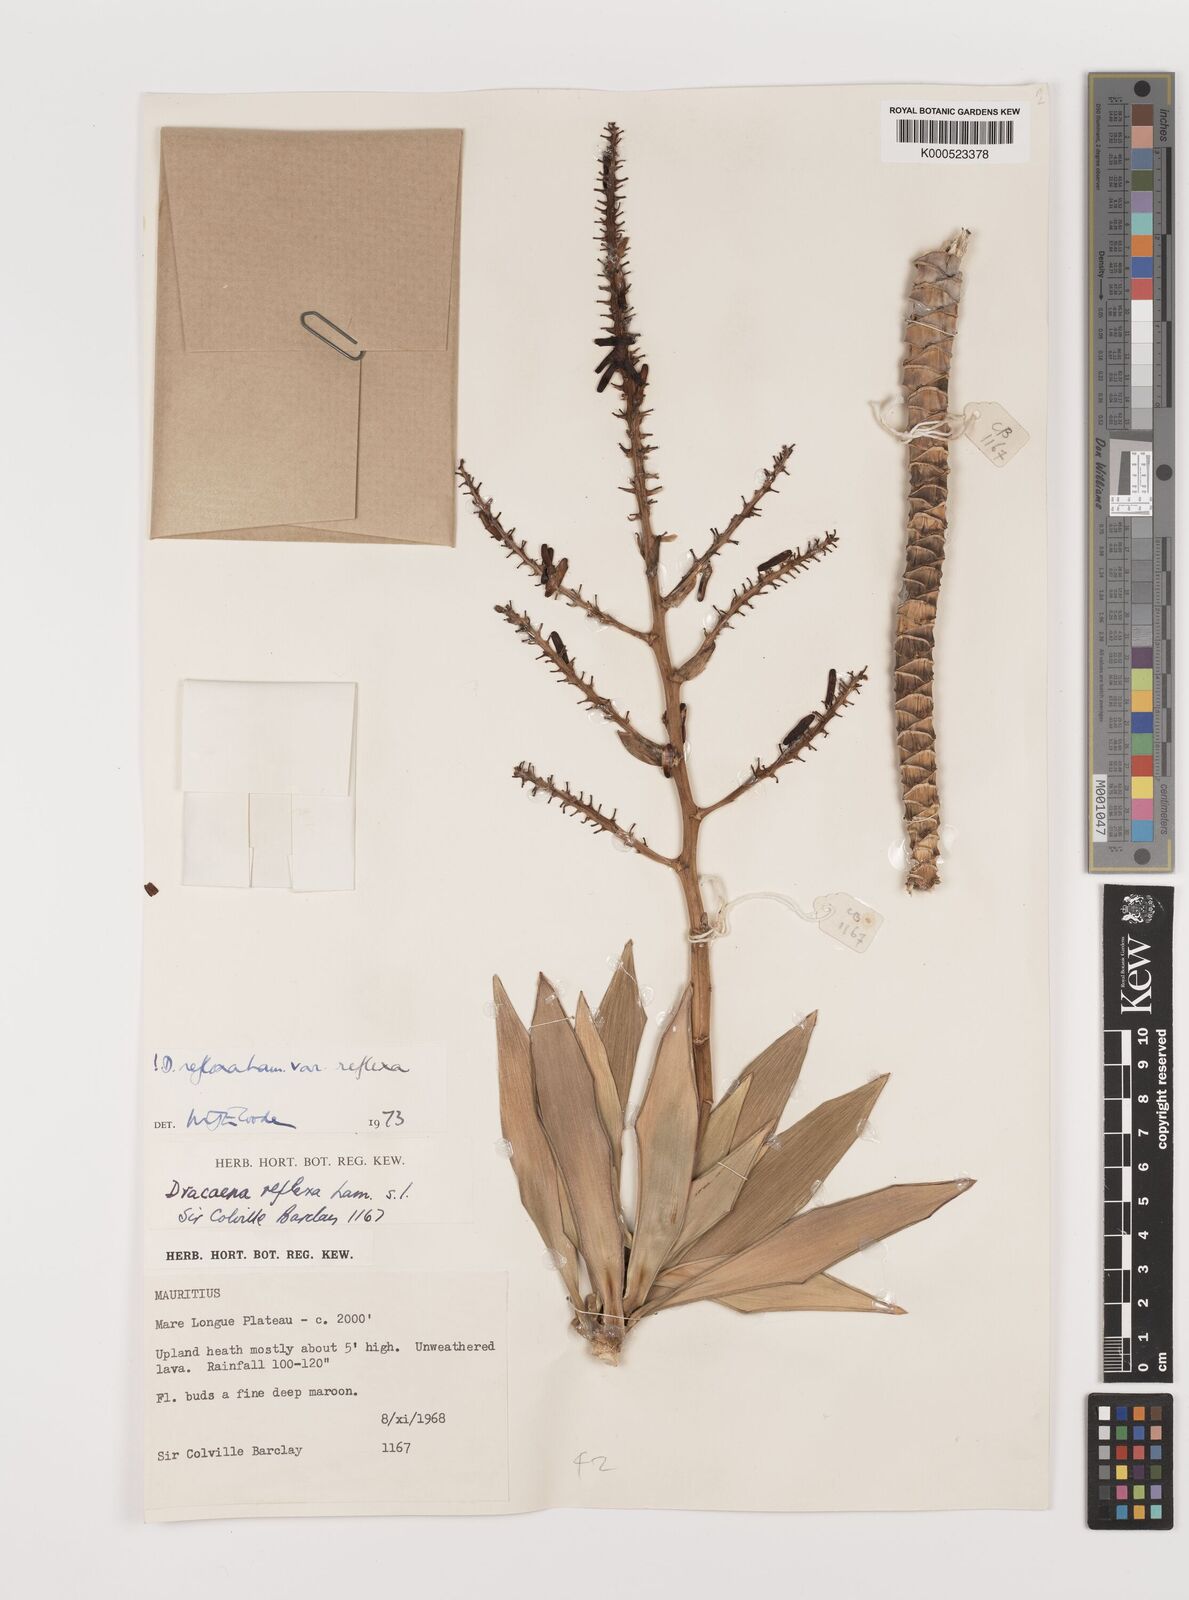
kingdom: Plantae
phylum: Tracheophyta
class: Liliopsida
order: Asparagales
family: Asparagaceae
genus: Dracaena
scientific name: Dracaena reflexa
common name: Song-of-india
